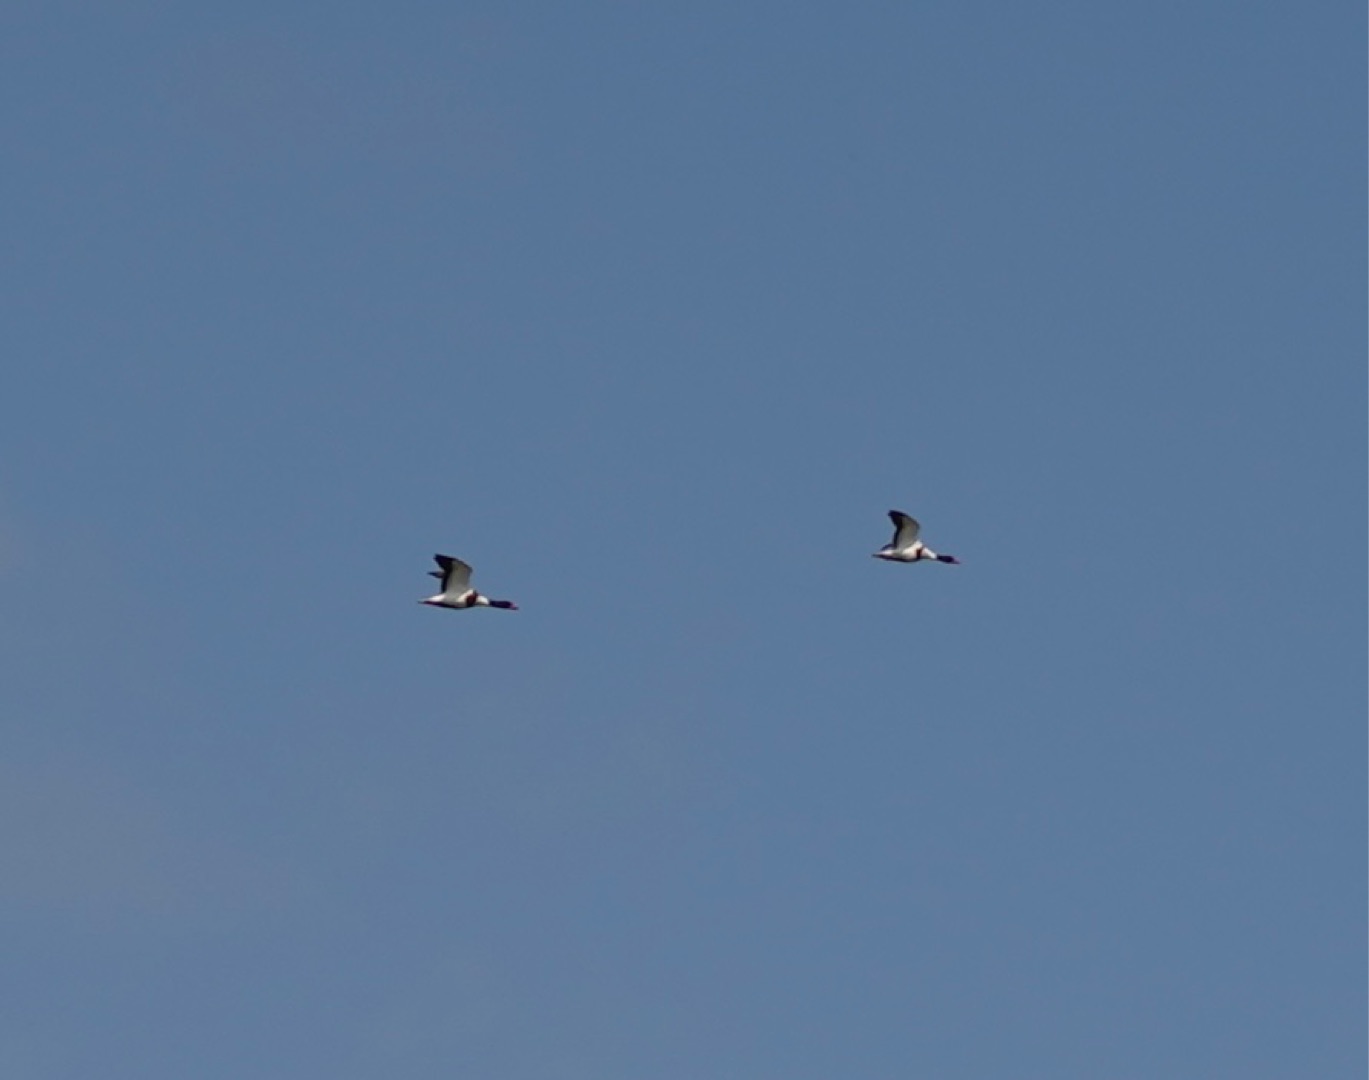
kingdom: Animalia
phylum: Chordata
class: Aves
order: Anseriformes
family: Anatidae
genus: Tadorna
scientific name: Tadorna tadorna
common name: Gravand
